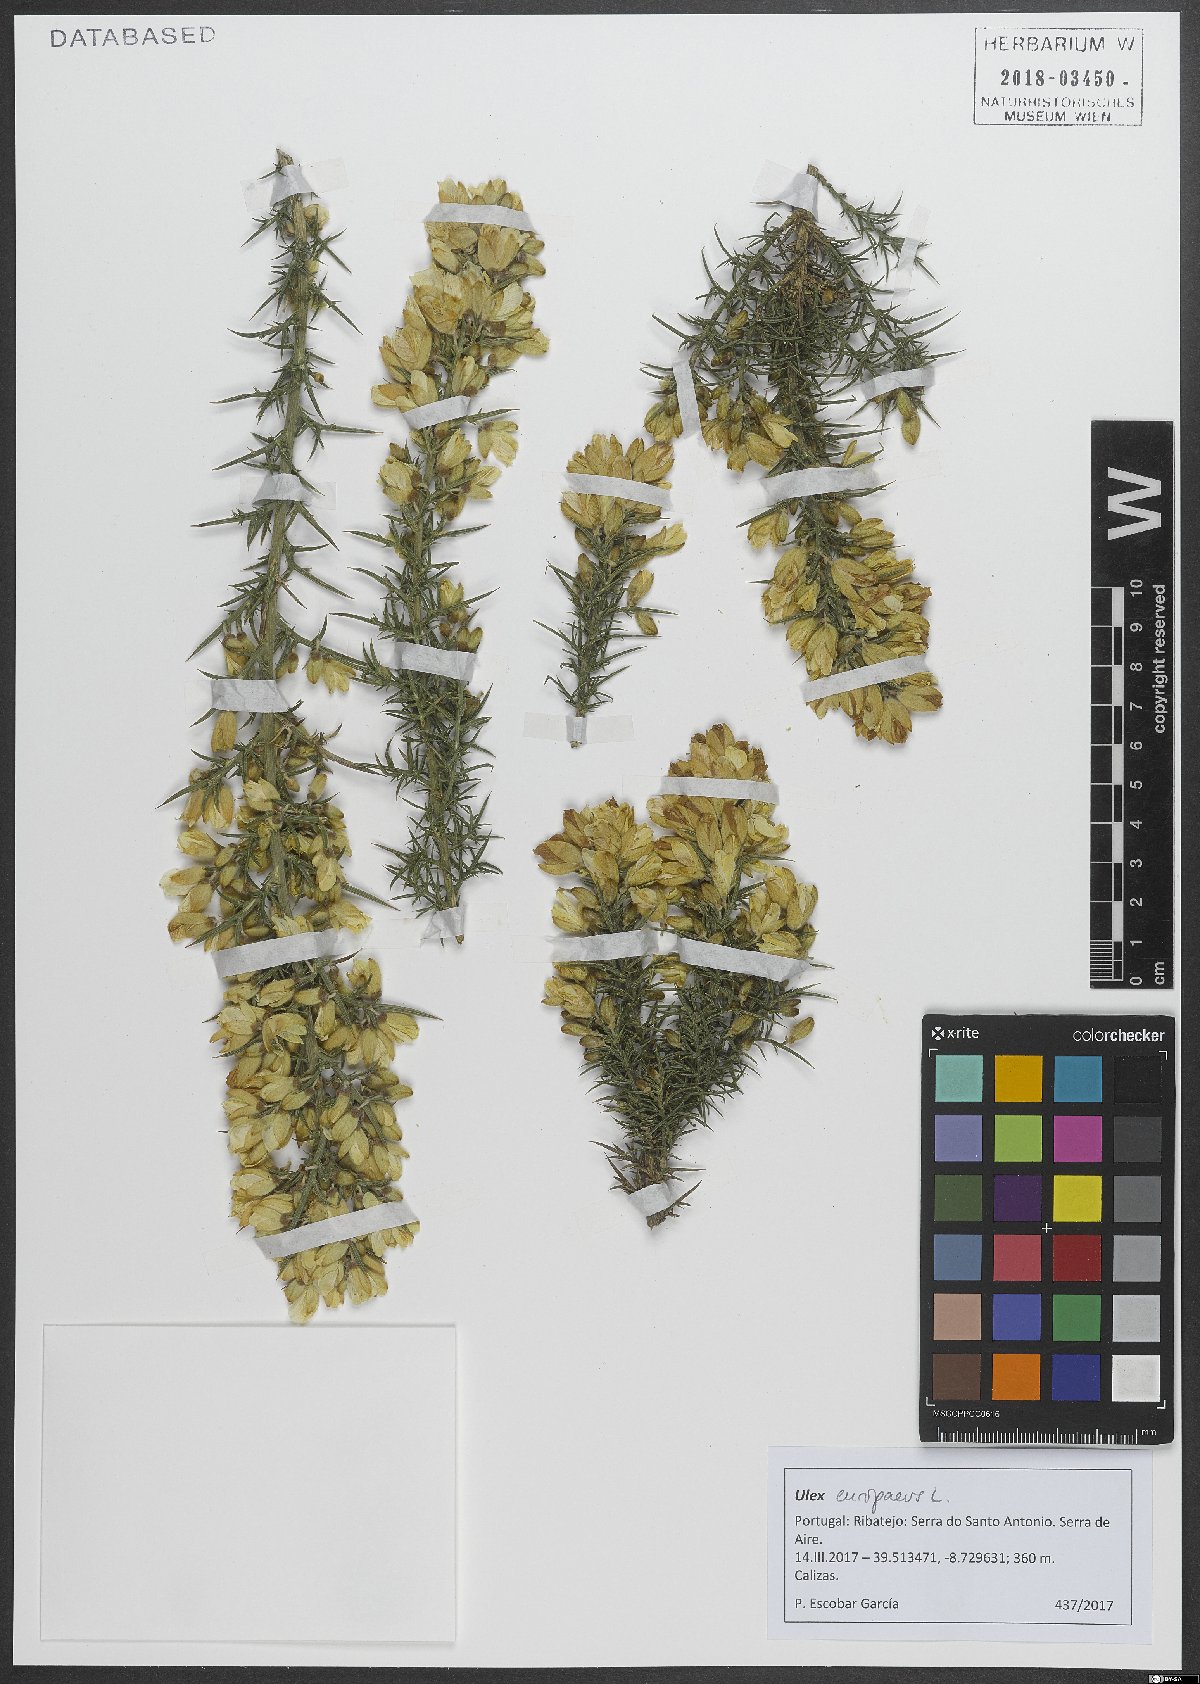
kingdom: Plantae
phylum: Tracheophyta
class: Magnoliopsida
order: Fabales
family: Fabaceae
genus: Ulex
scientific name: Ulex europaeus
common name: Common gorse
